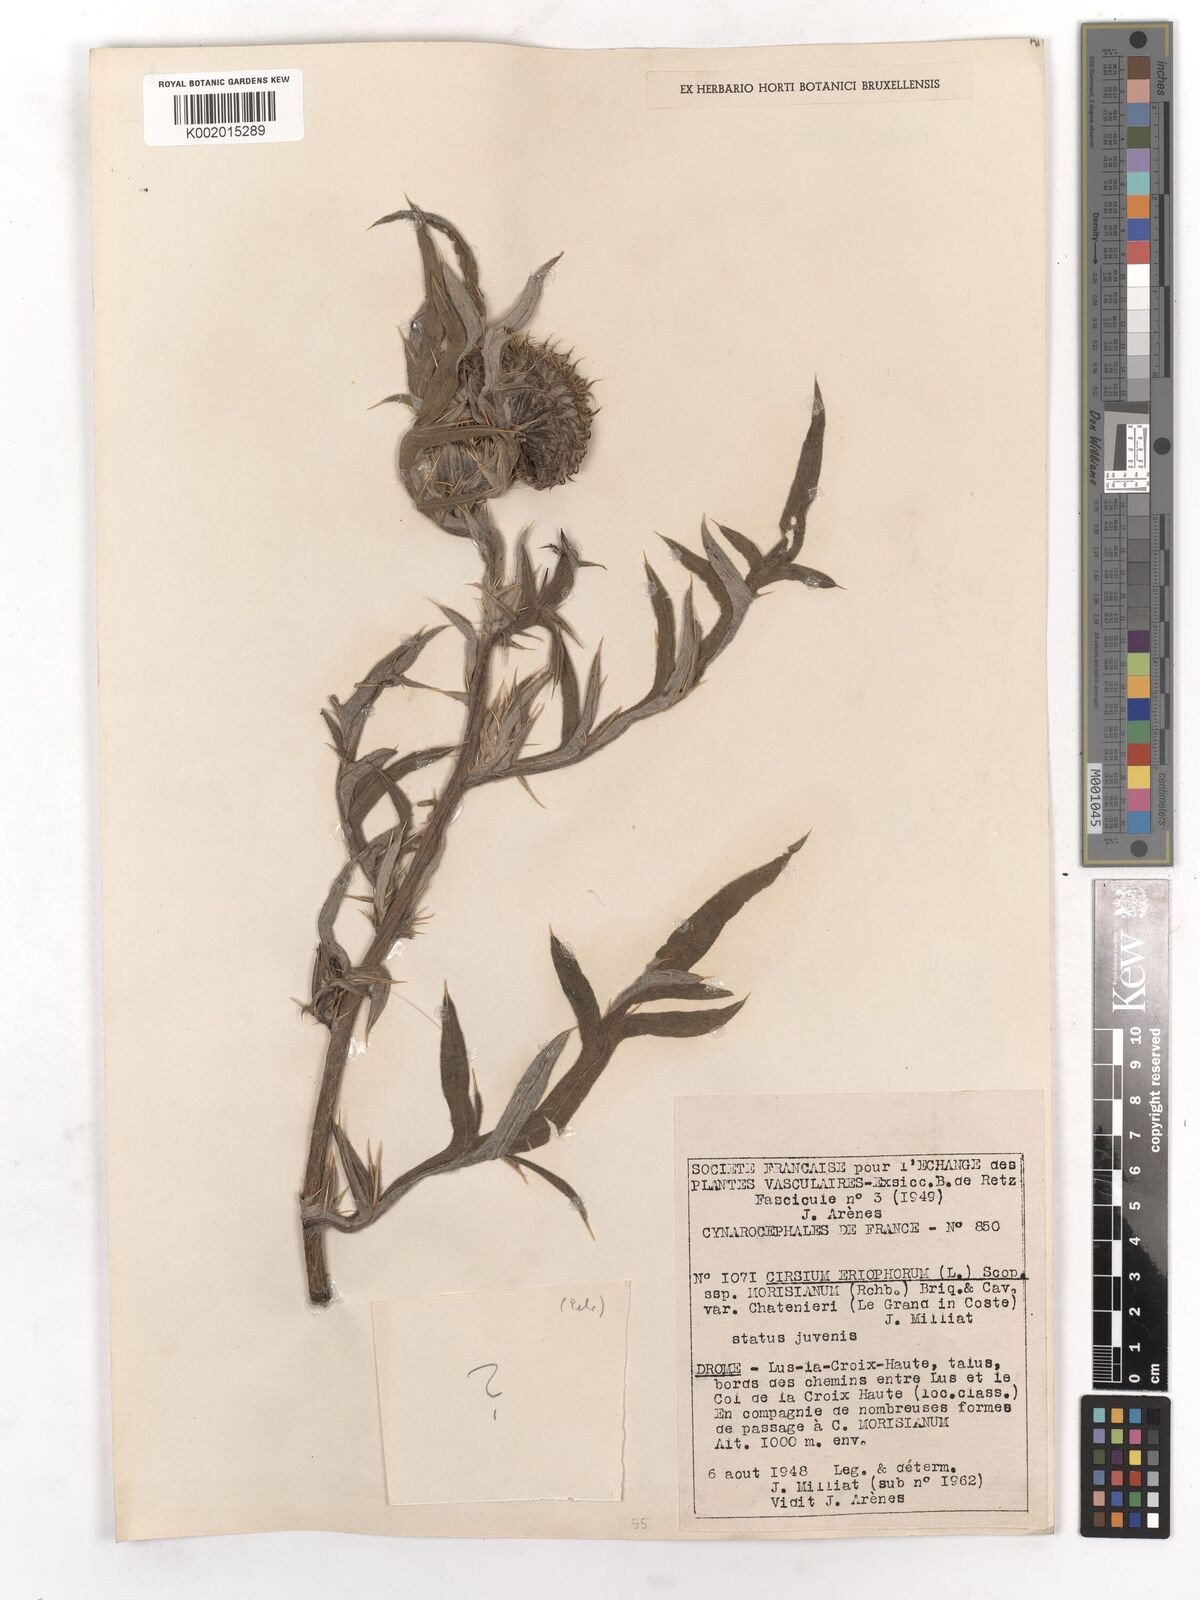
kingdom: Plantae
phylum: Tracheophyta
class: Magnoliopsida
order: Asterales
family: Asteraceae
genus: Lophiolepis
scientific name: Lophiolepis eriophora
